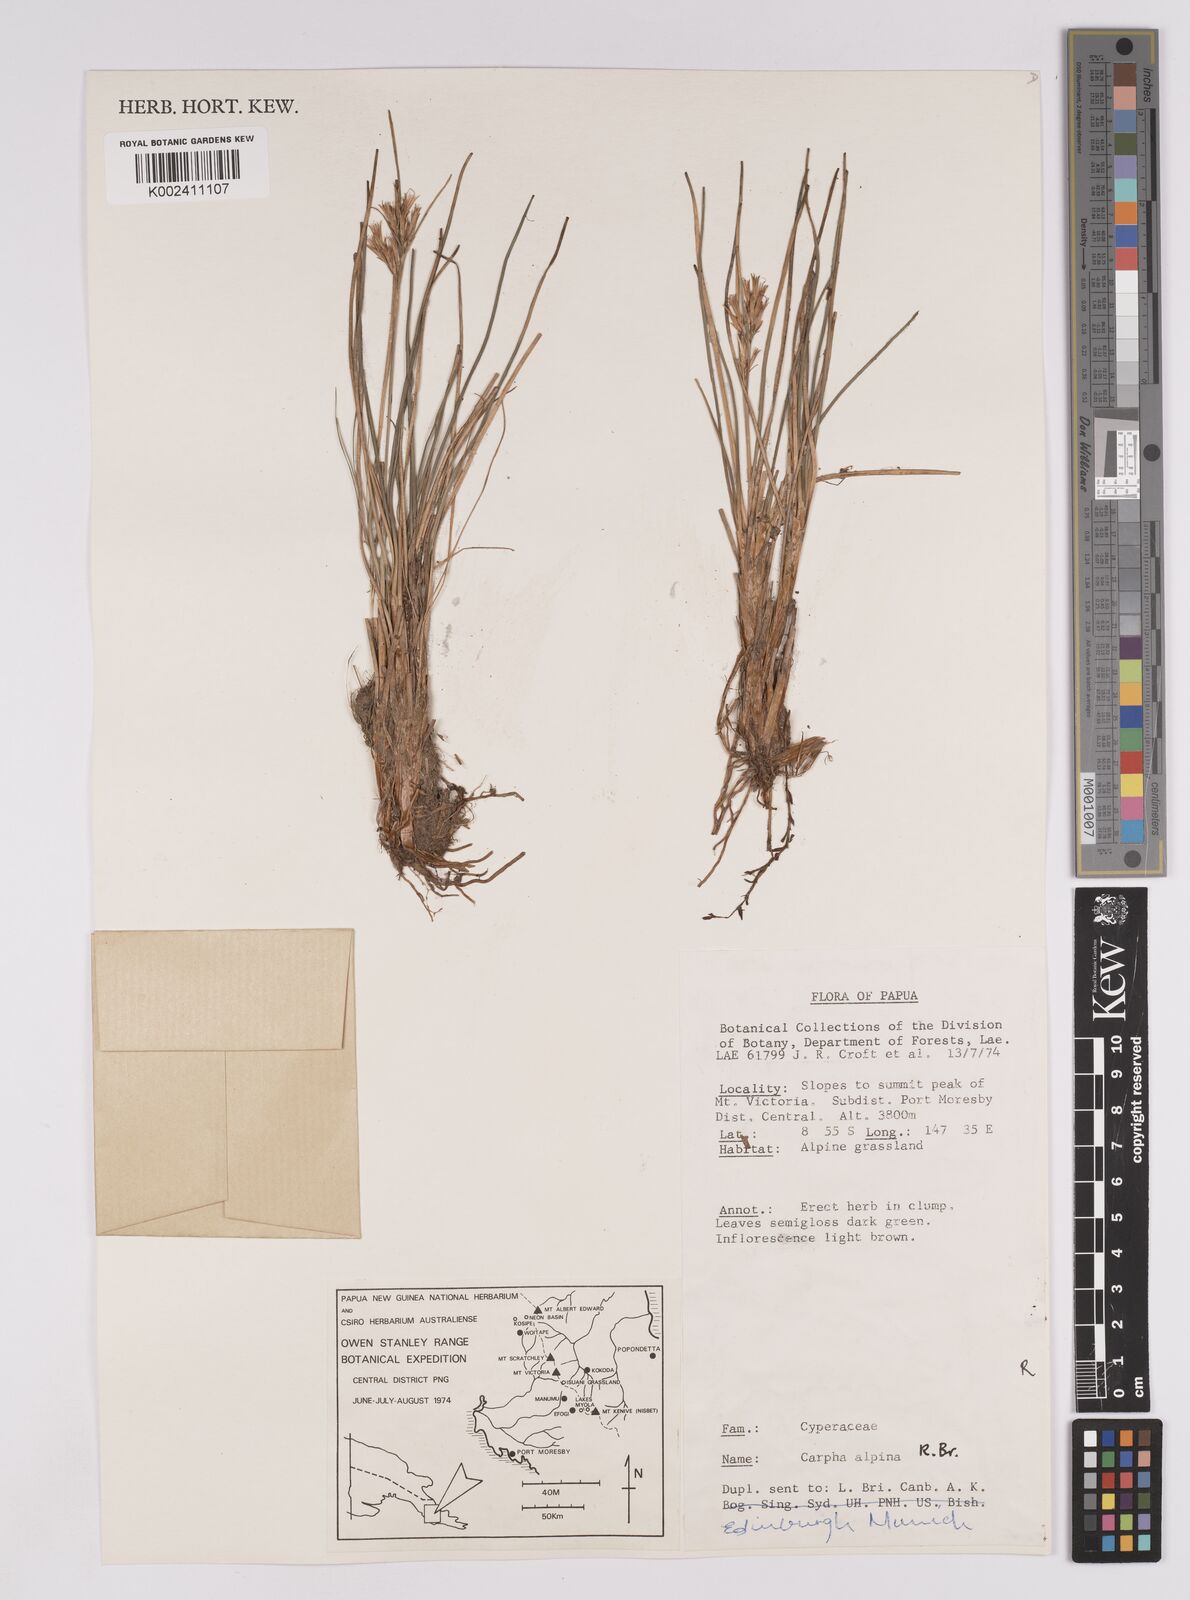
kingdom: Plantae
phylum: Tracheophyta
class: Liliopsida
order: Poales
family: Cyperaceae
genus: Carpha
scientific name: Carpha alpina
